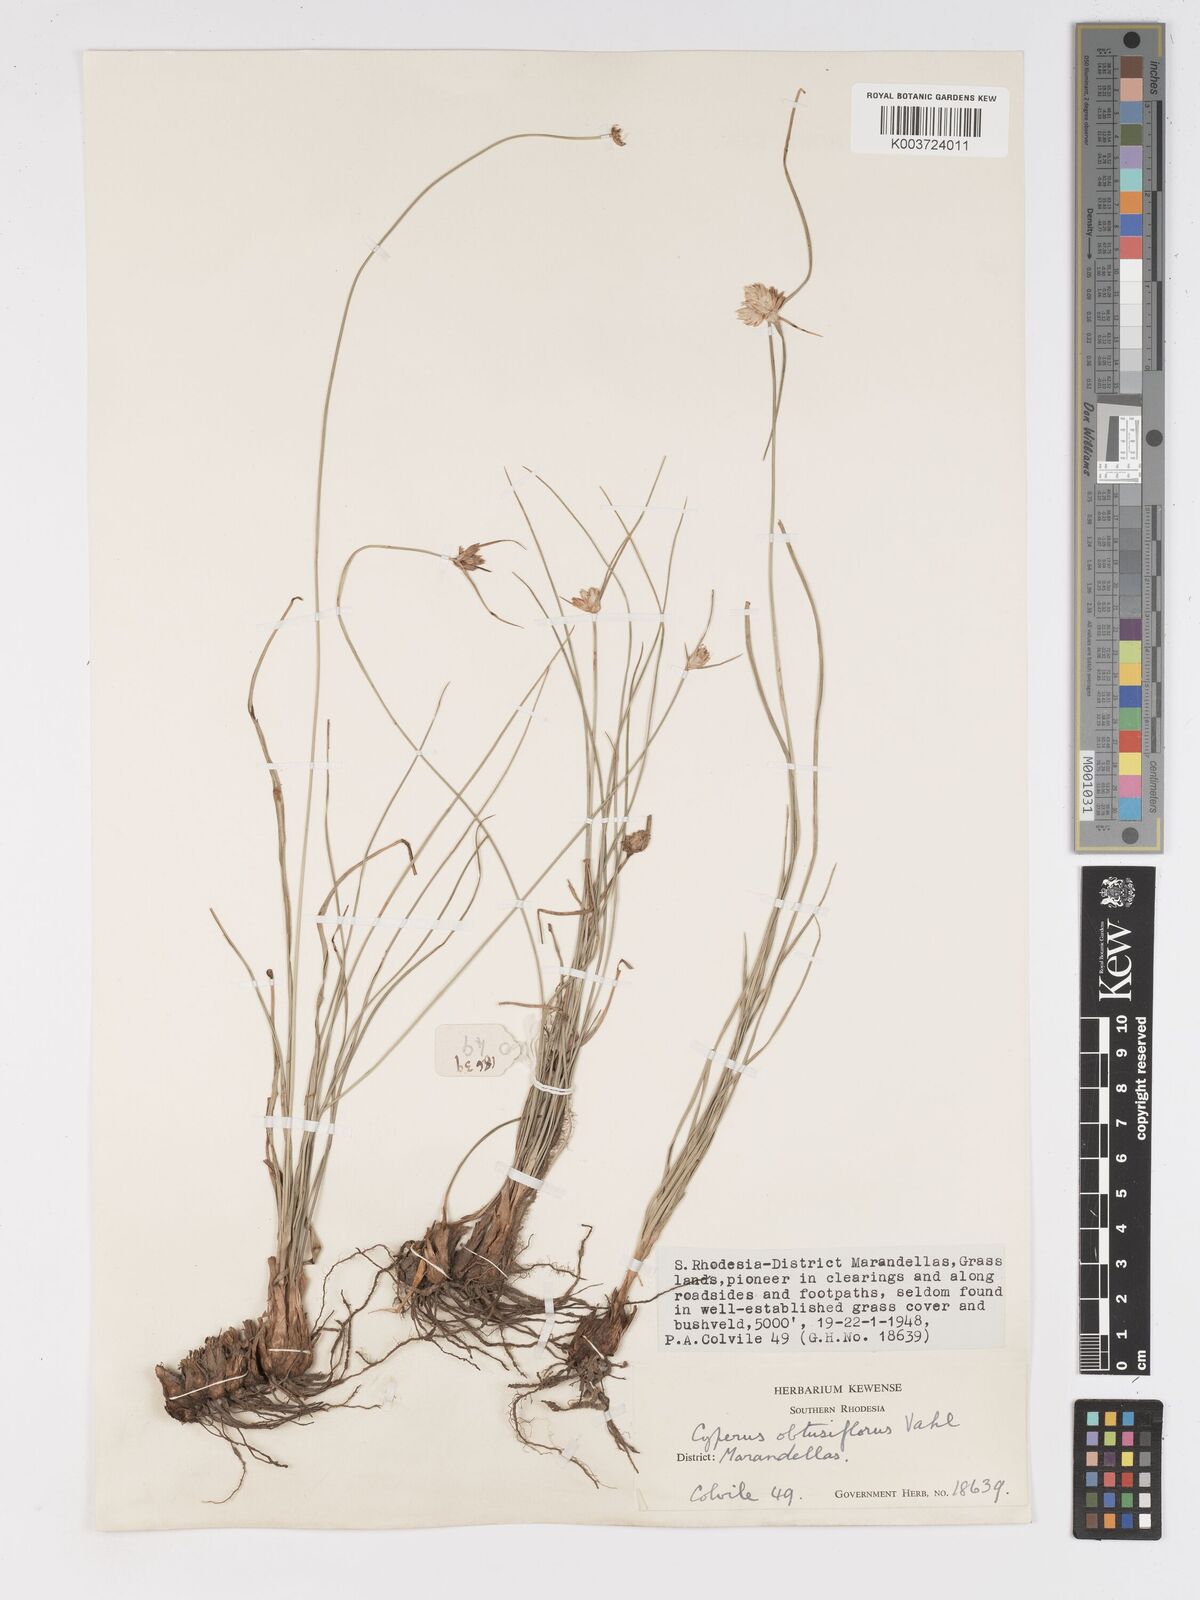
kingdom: Plantae
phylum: Tracheophyta
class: Liliopsida
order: Poales
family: Cyperaceae
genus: Cyperus
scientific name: Cyperus niveus
